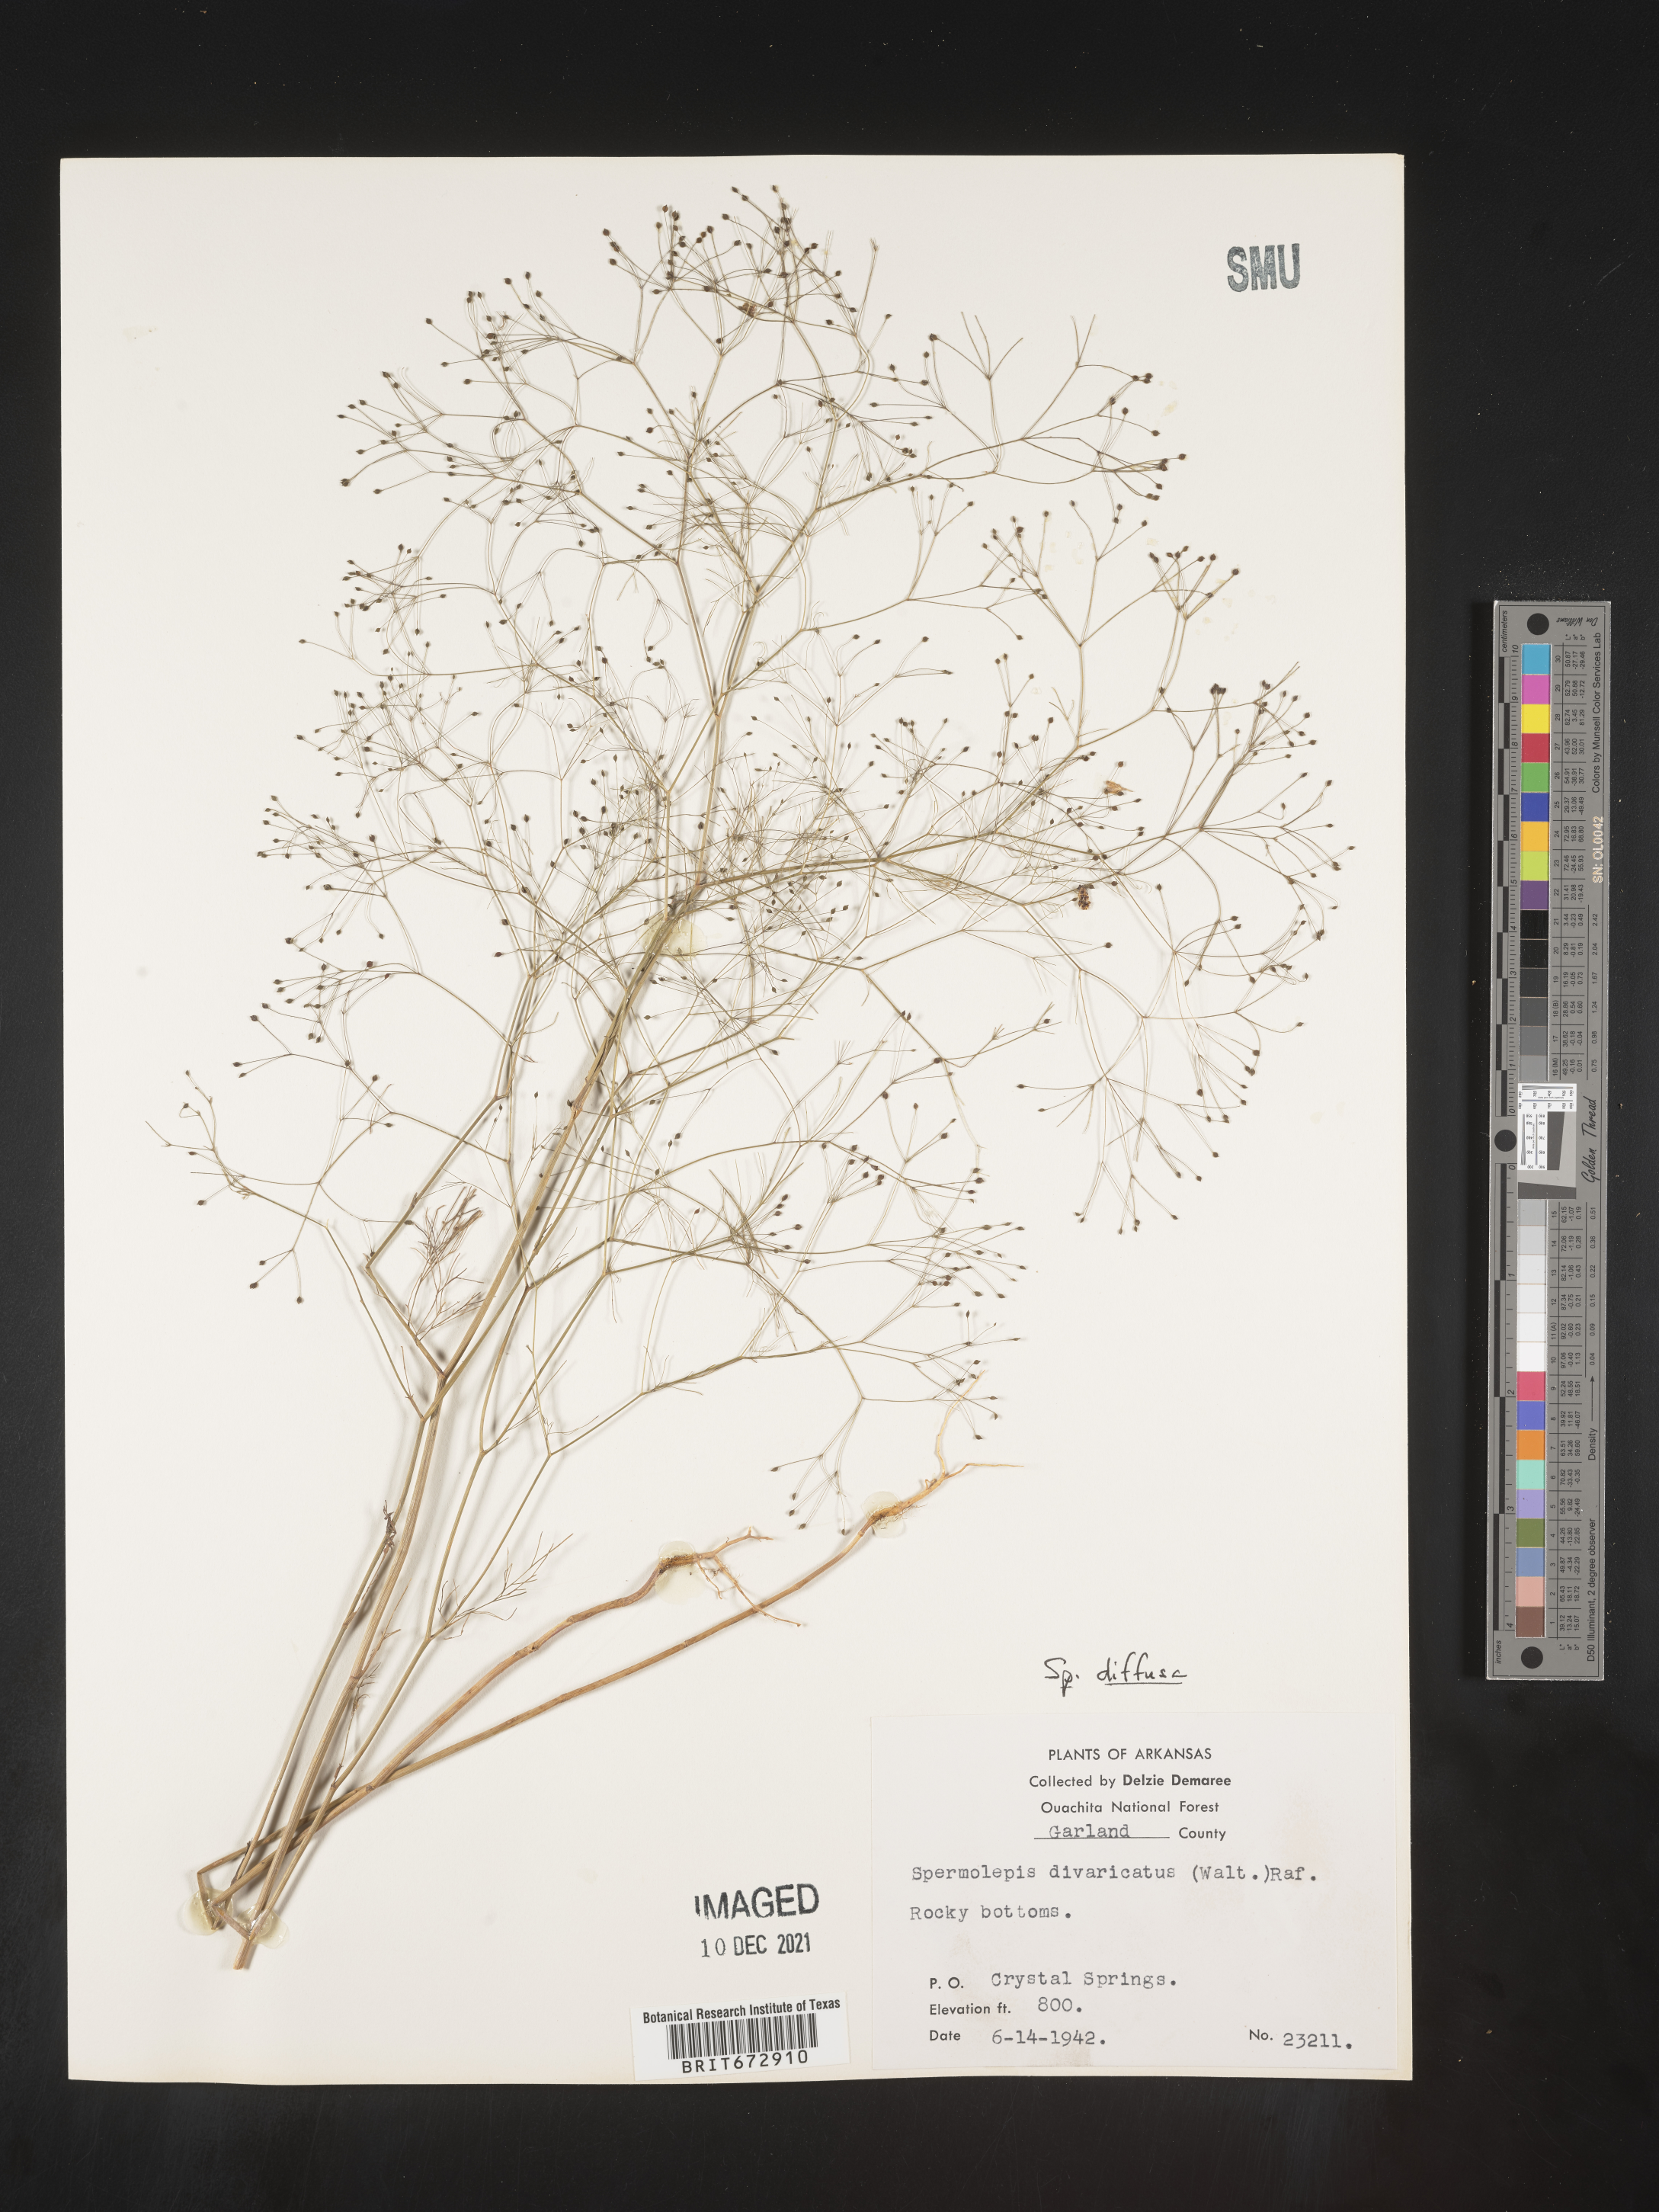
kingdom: Plantae
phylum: Tracheophyta
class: Magnoliopsida
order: Apiales
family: Apiaceae
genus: Spermolepis
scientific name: Spermolepis diffusa
